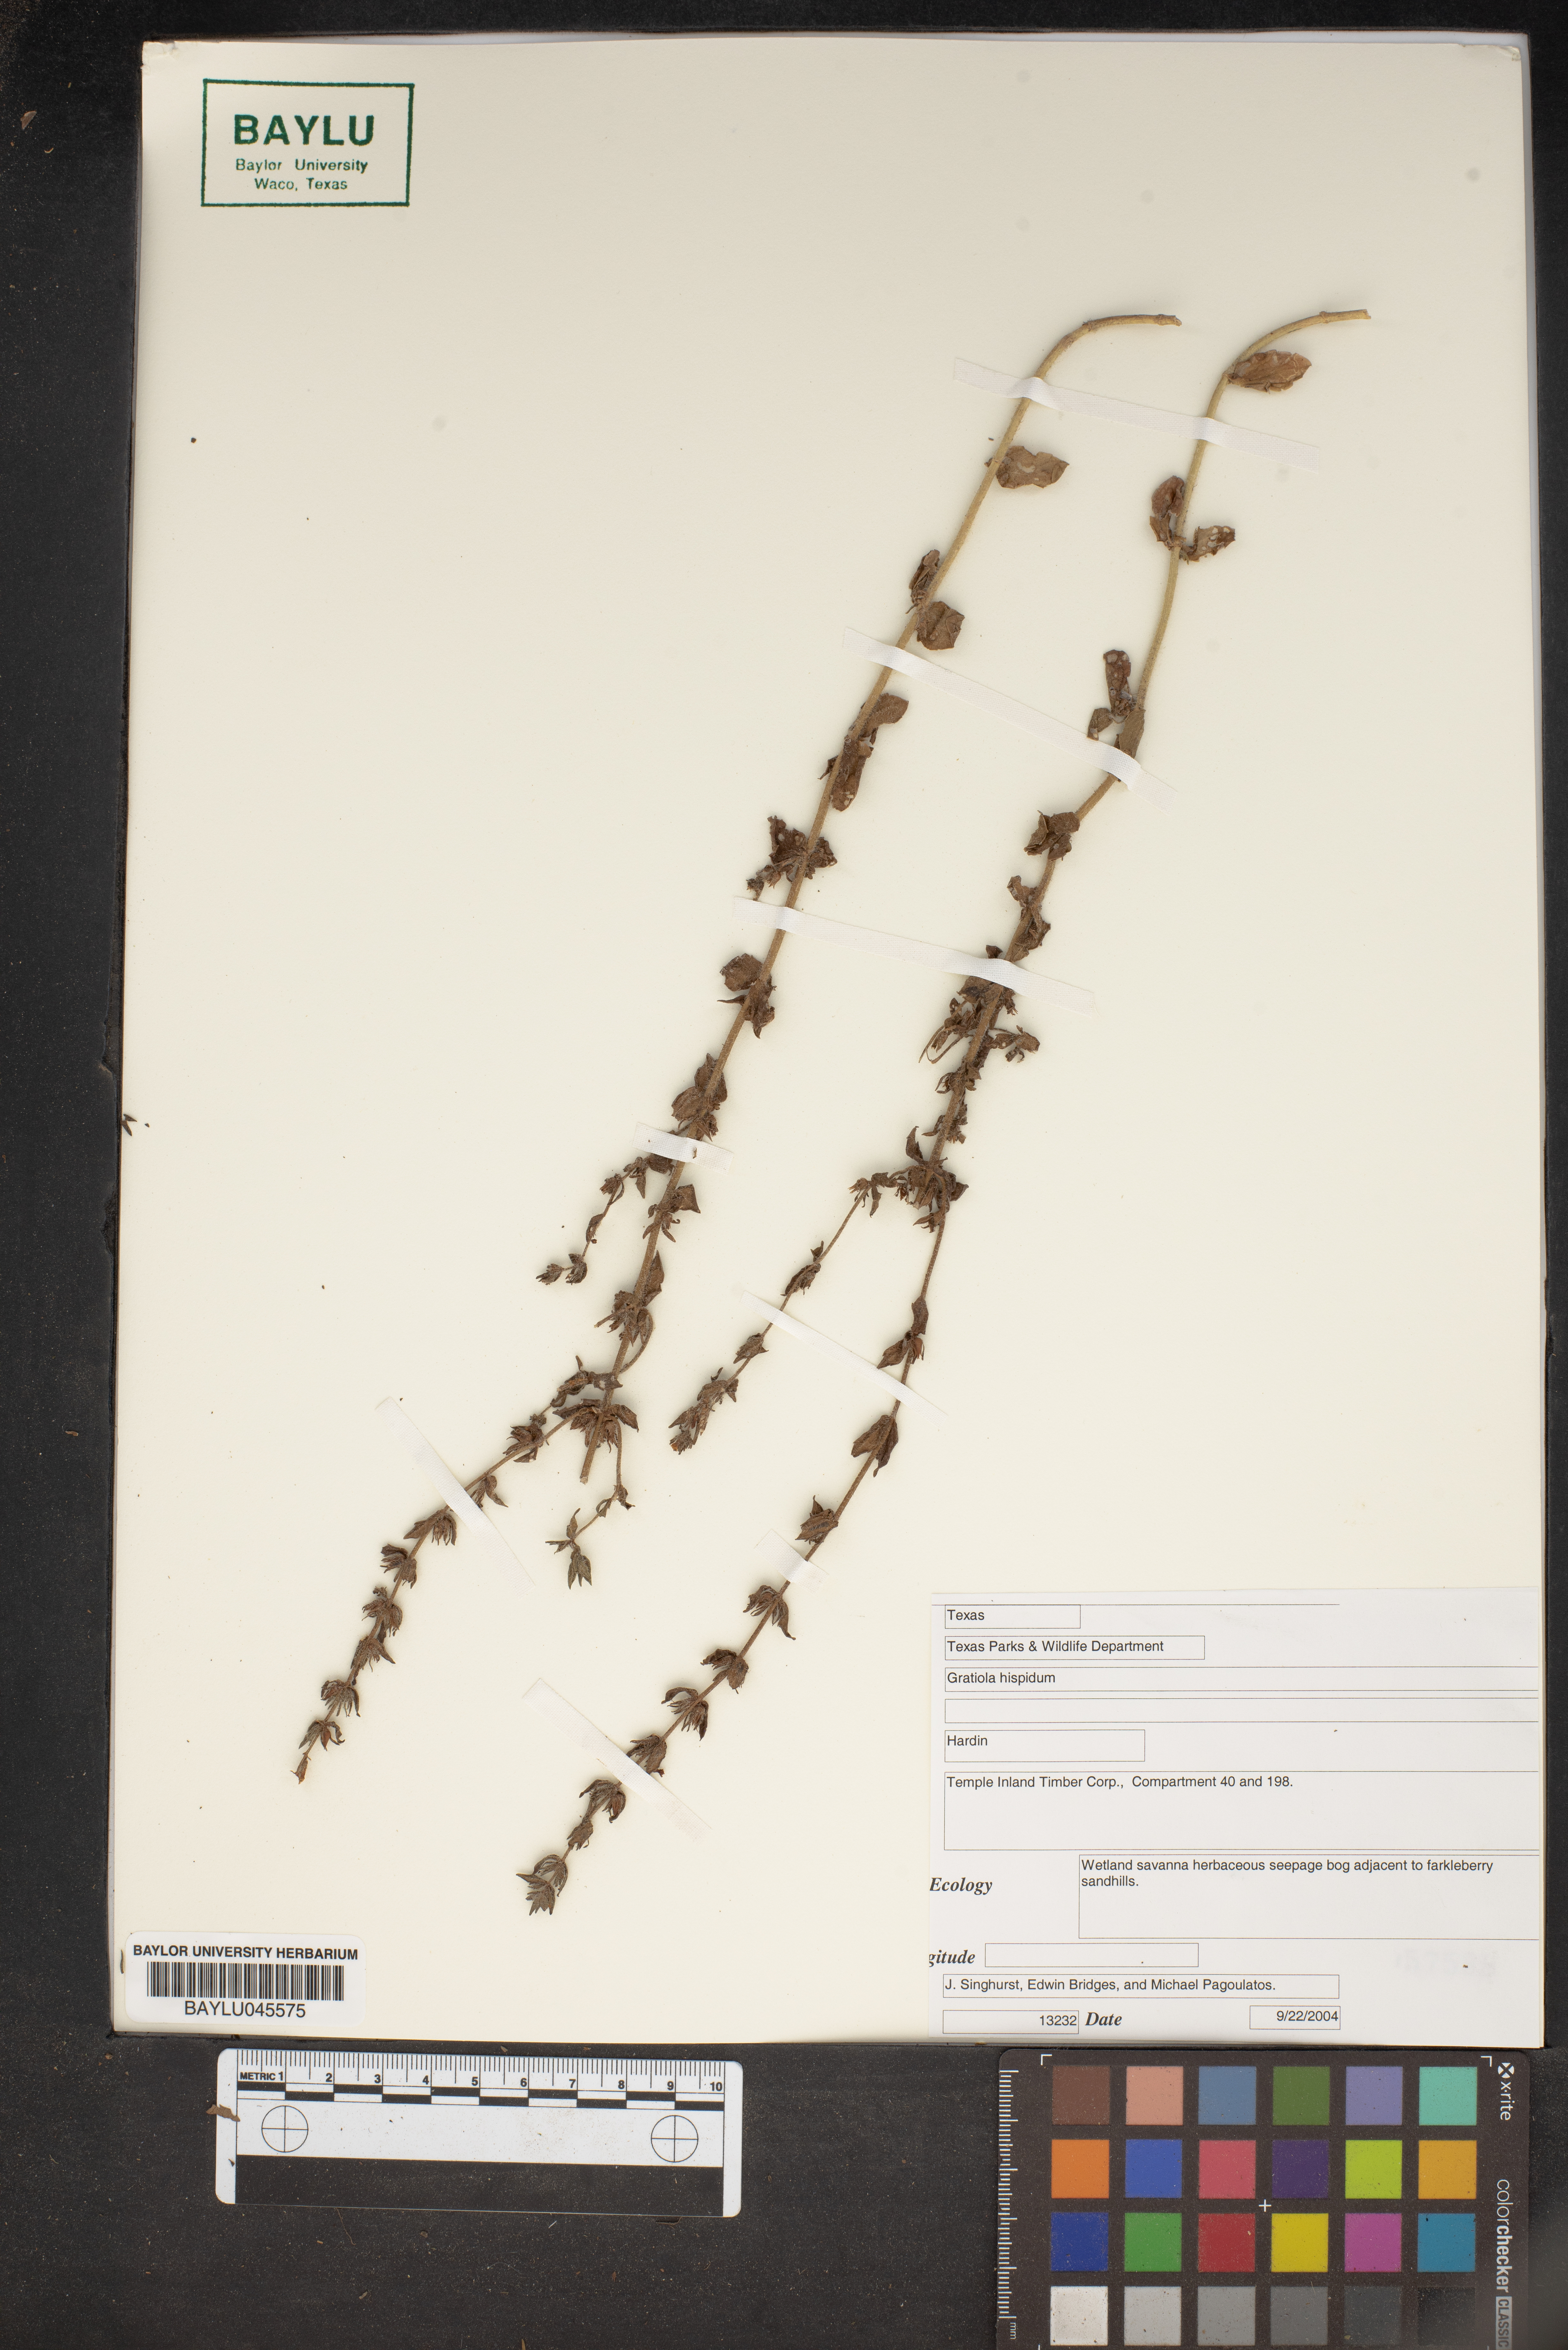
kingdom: Plantae
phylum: Tracheophyta
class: Magnoliopsida
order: Lamiales
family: Plantaginaceae
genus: Gratiola
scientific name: Gratiola hispida
